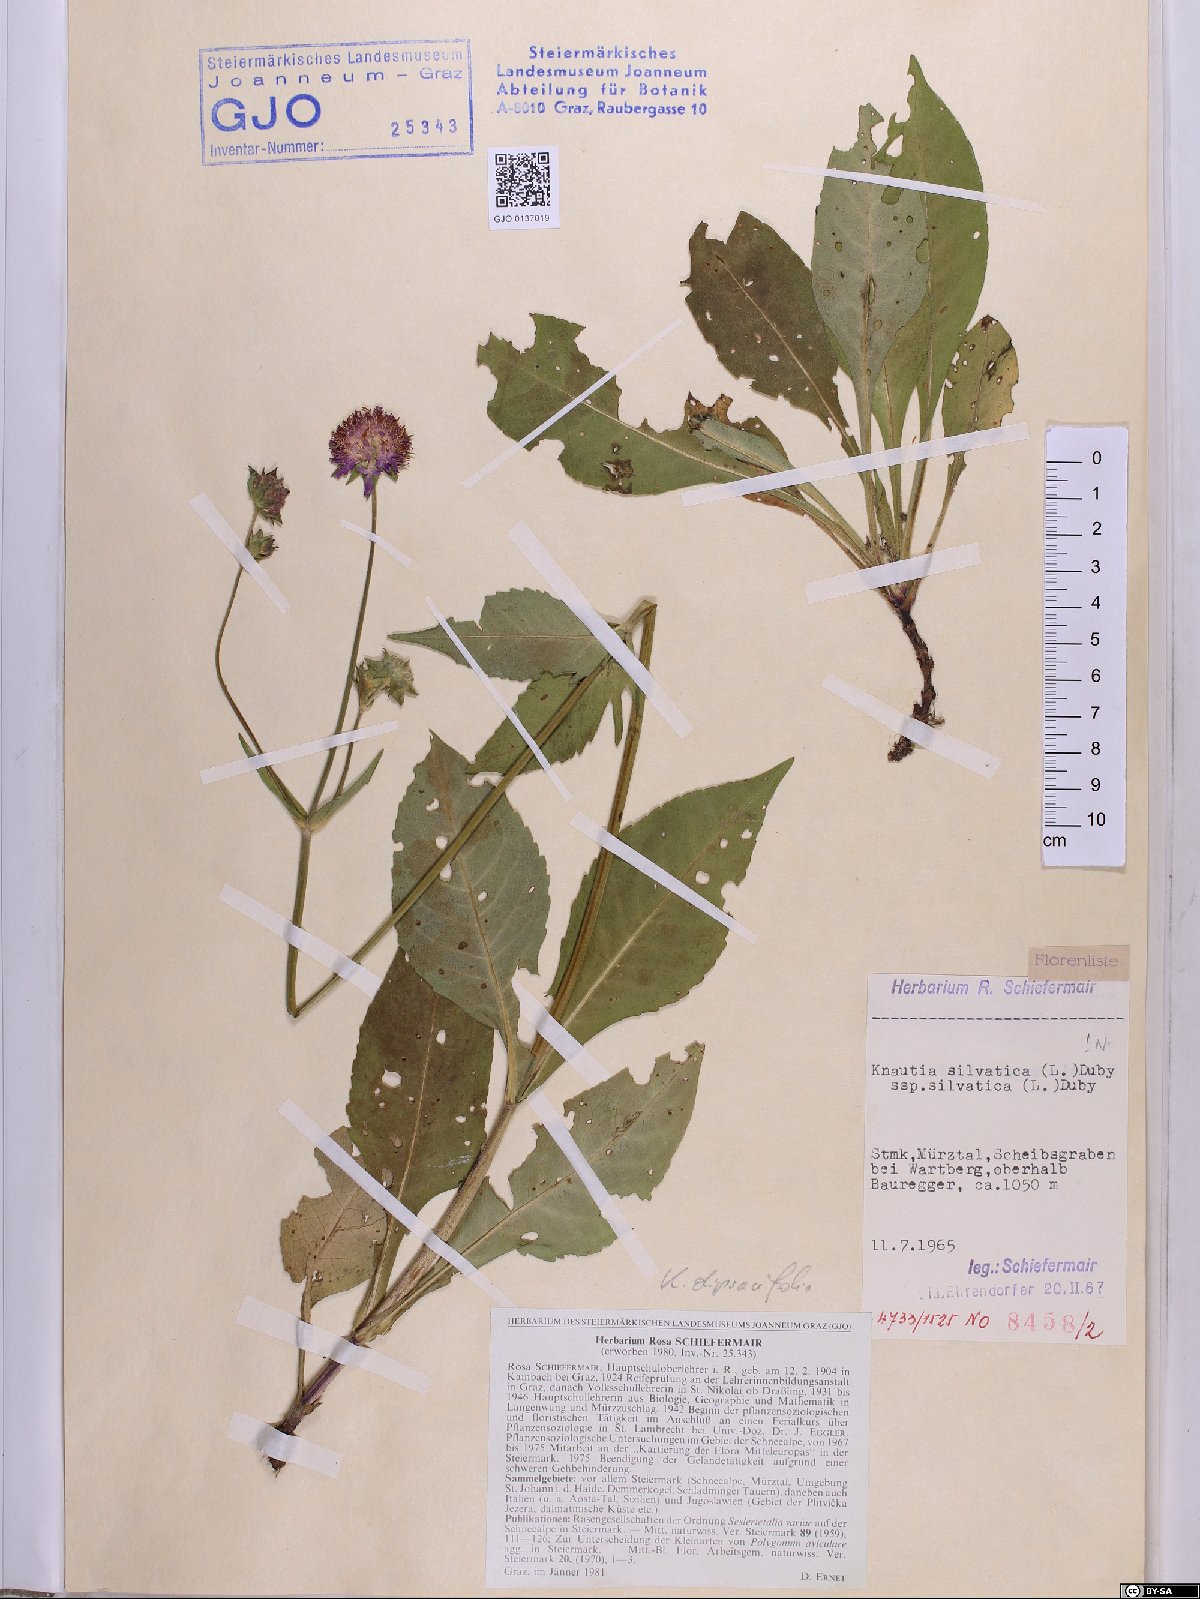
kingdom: Plantae
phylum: Tracheophyta
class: Magnoliopsida
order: Dipsacales
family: Caprifoliaceae
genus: Knautia
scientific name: Knautia drymeia
